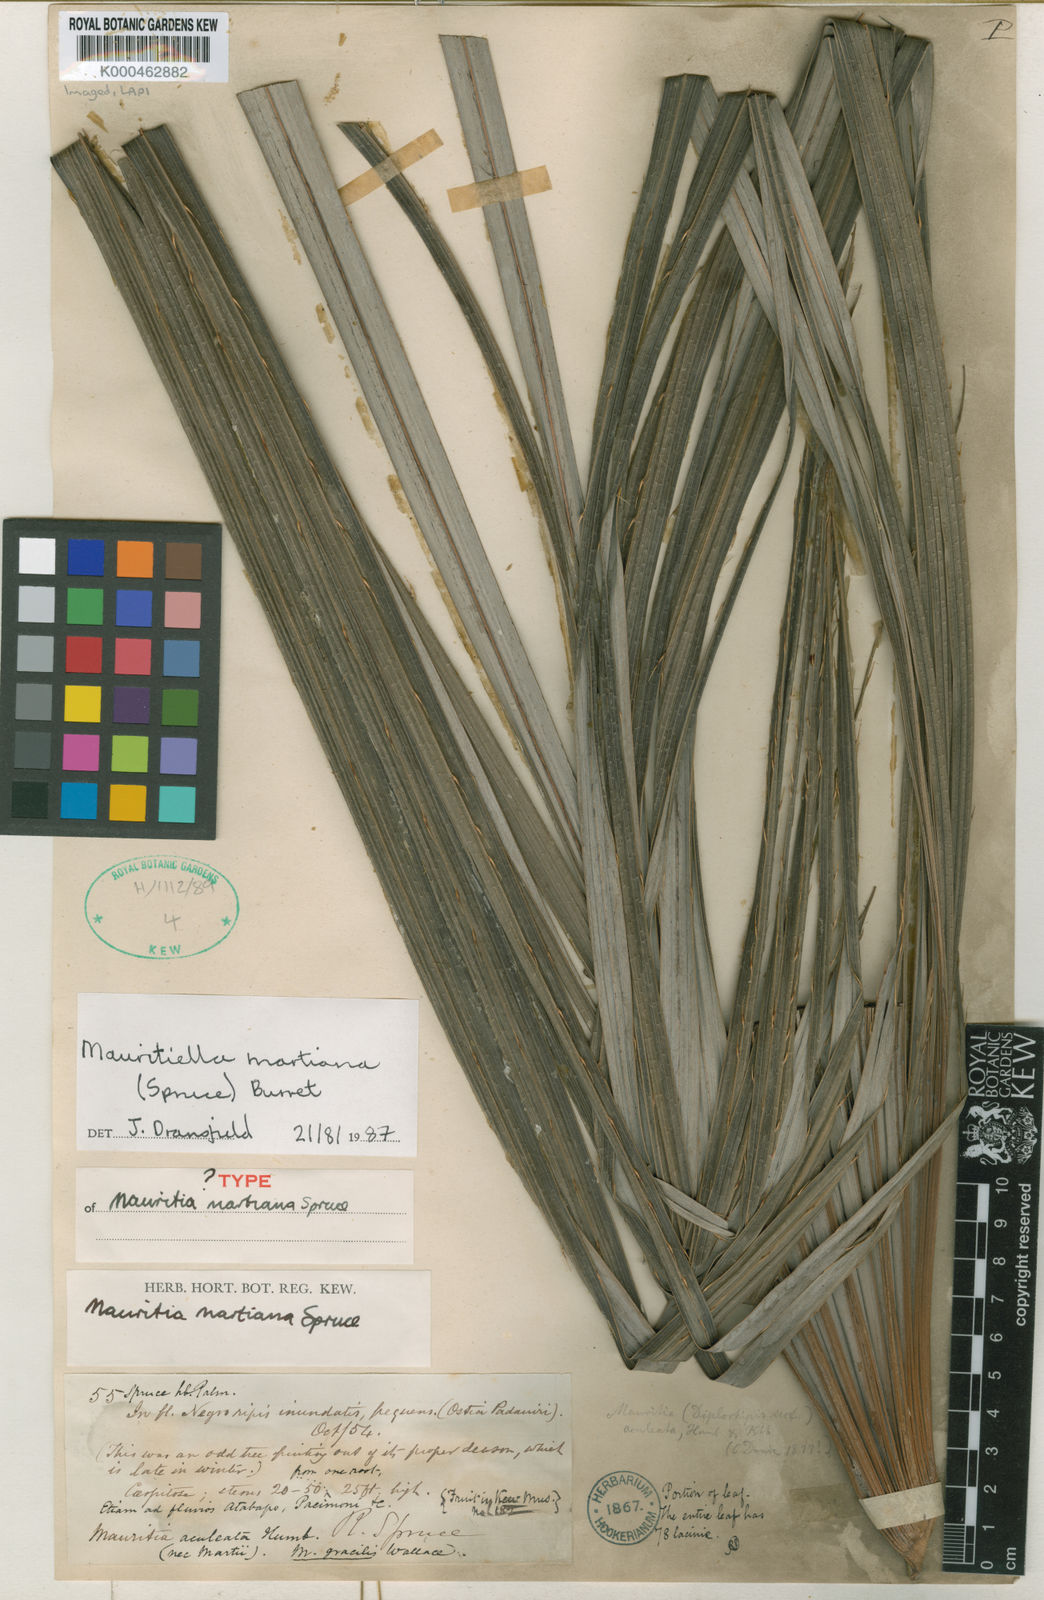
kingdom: Plantae
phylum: Tracheophyta
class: Liliopsida
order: Arecales
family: Arecaceae
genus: Mauritiella
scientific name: Mauritiella armata
